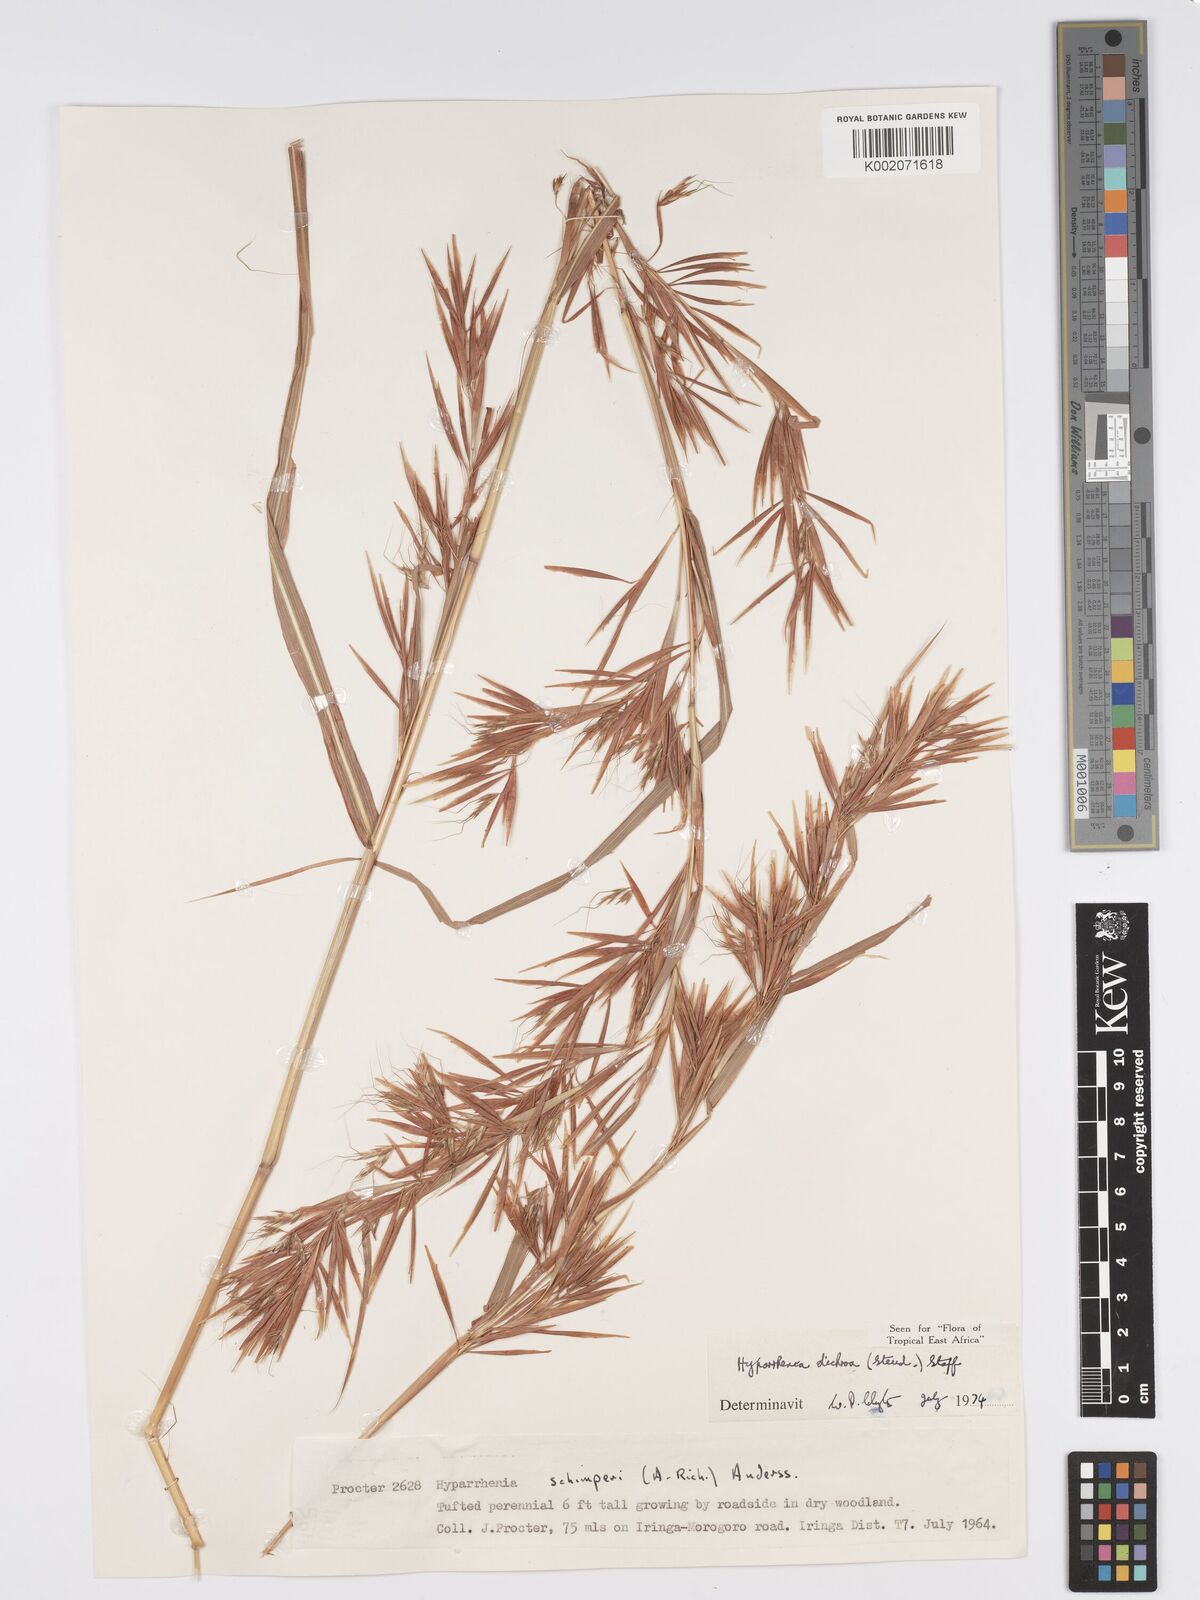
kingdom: Plantae
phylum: Tracheophyta
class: Liliopsida
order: Poales
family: Poaceae
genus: Hyparrhenia
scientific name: Hyparrhenia dichroa
